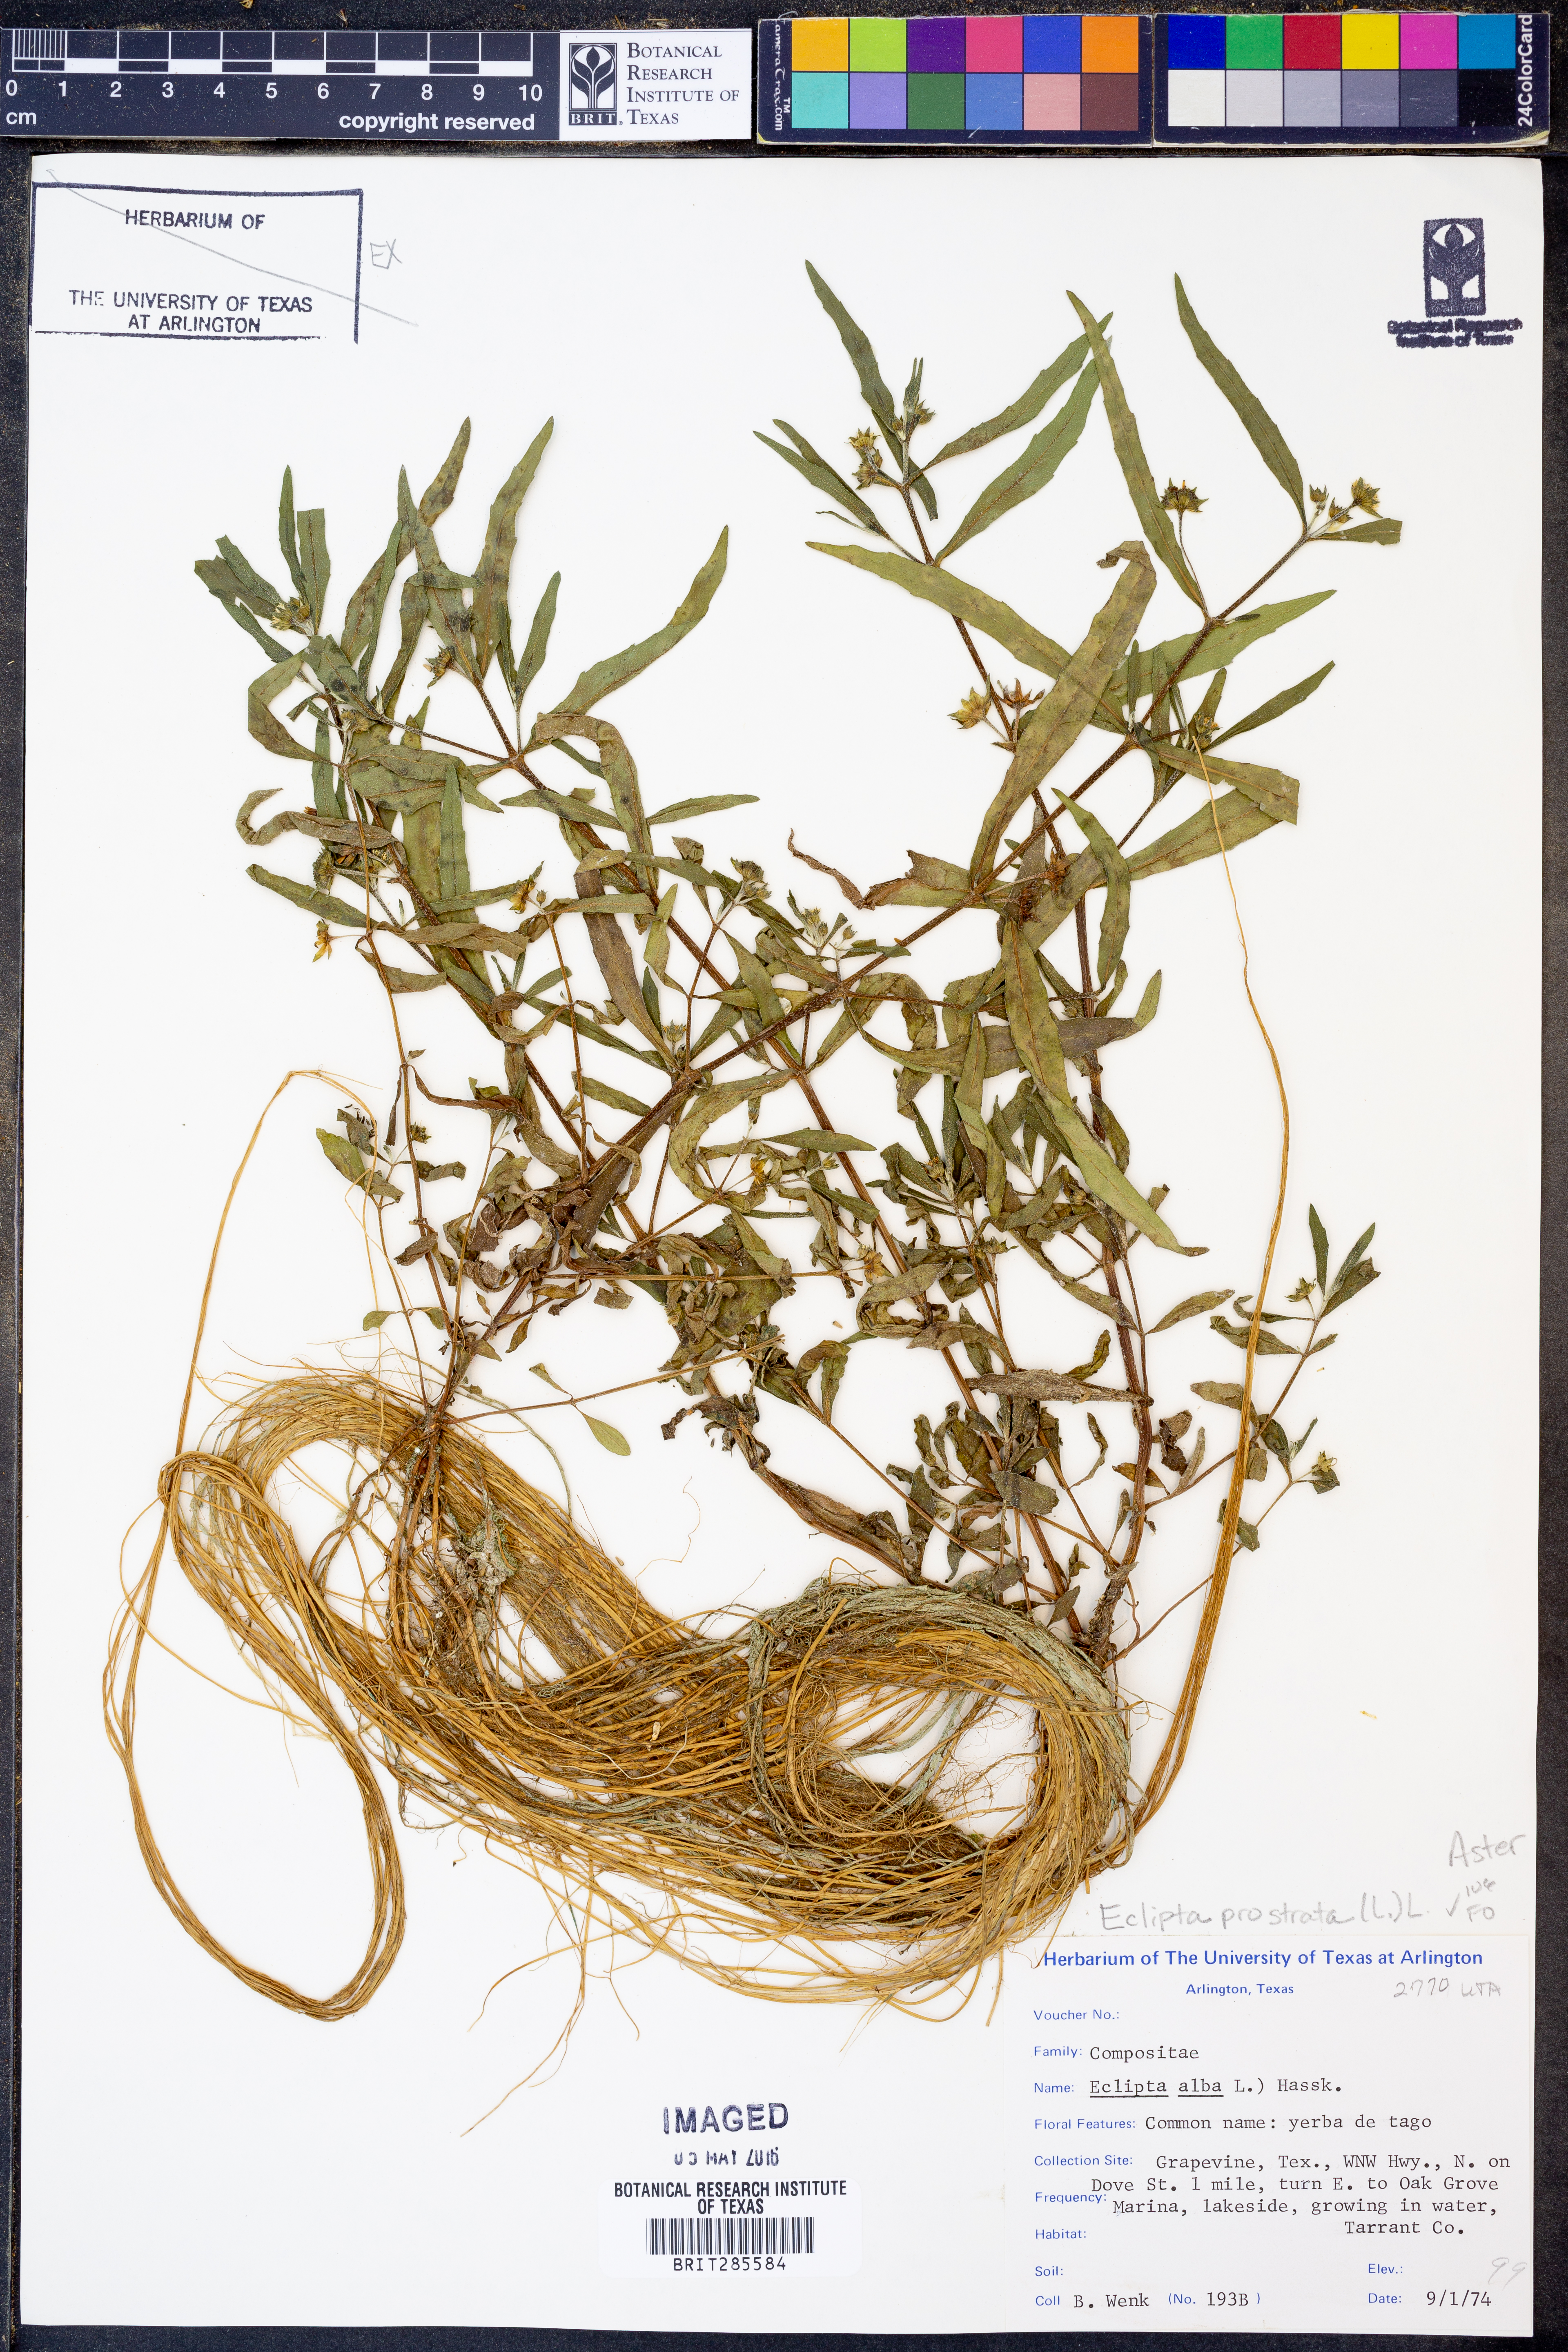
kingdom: Plantae
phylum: Tracheophyta
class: Magnoliopsida
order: Asterales
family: Asteraceae
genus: Eclipta
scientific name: Eclipta prostrata
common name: False daisy
